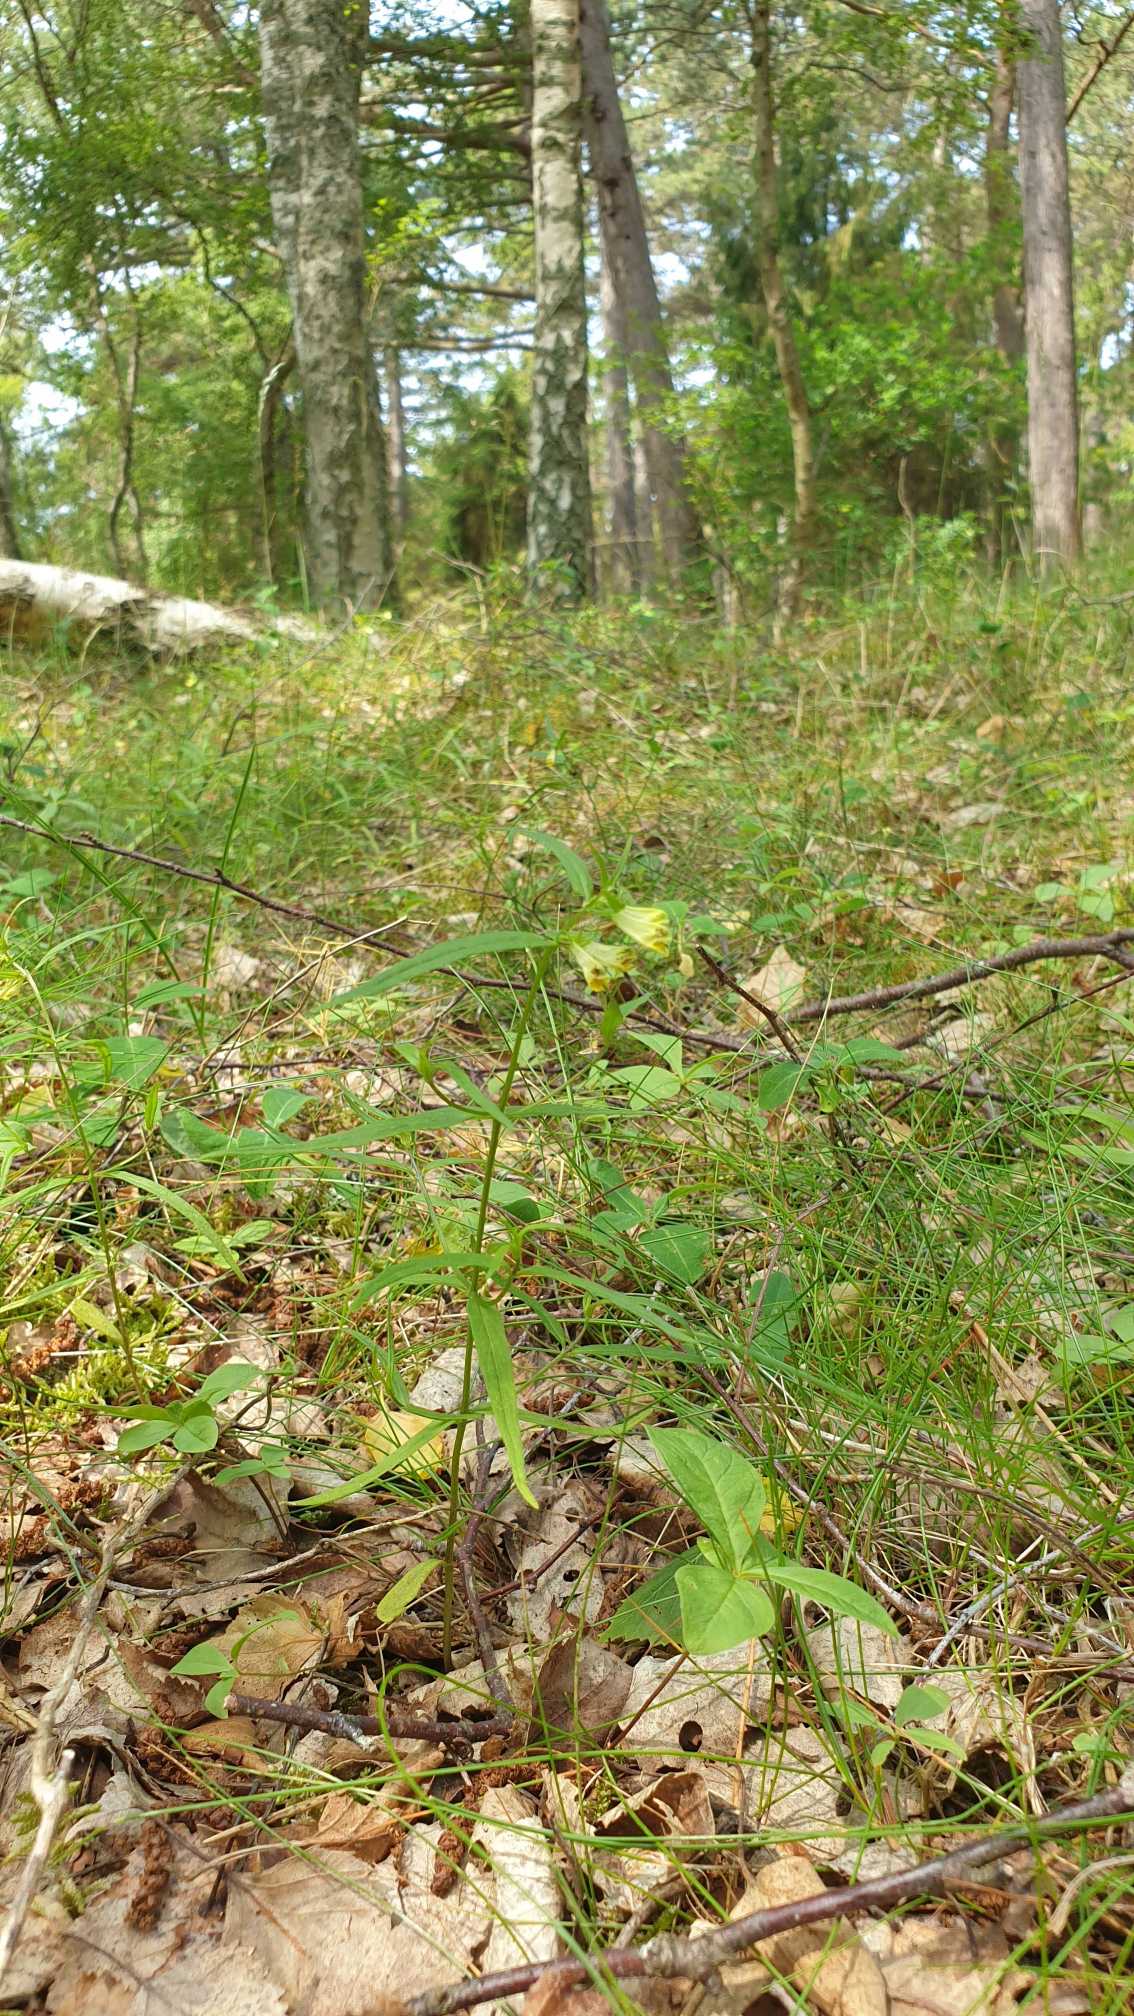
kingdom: Plantae
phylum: Tracheophyta
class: Magnoliopsida
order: Lamiales
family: Orobanchaceae
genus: Melampyrum
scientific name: Melampyrum pratense
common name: Almindelig kohvede
